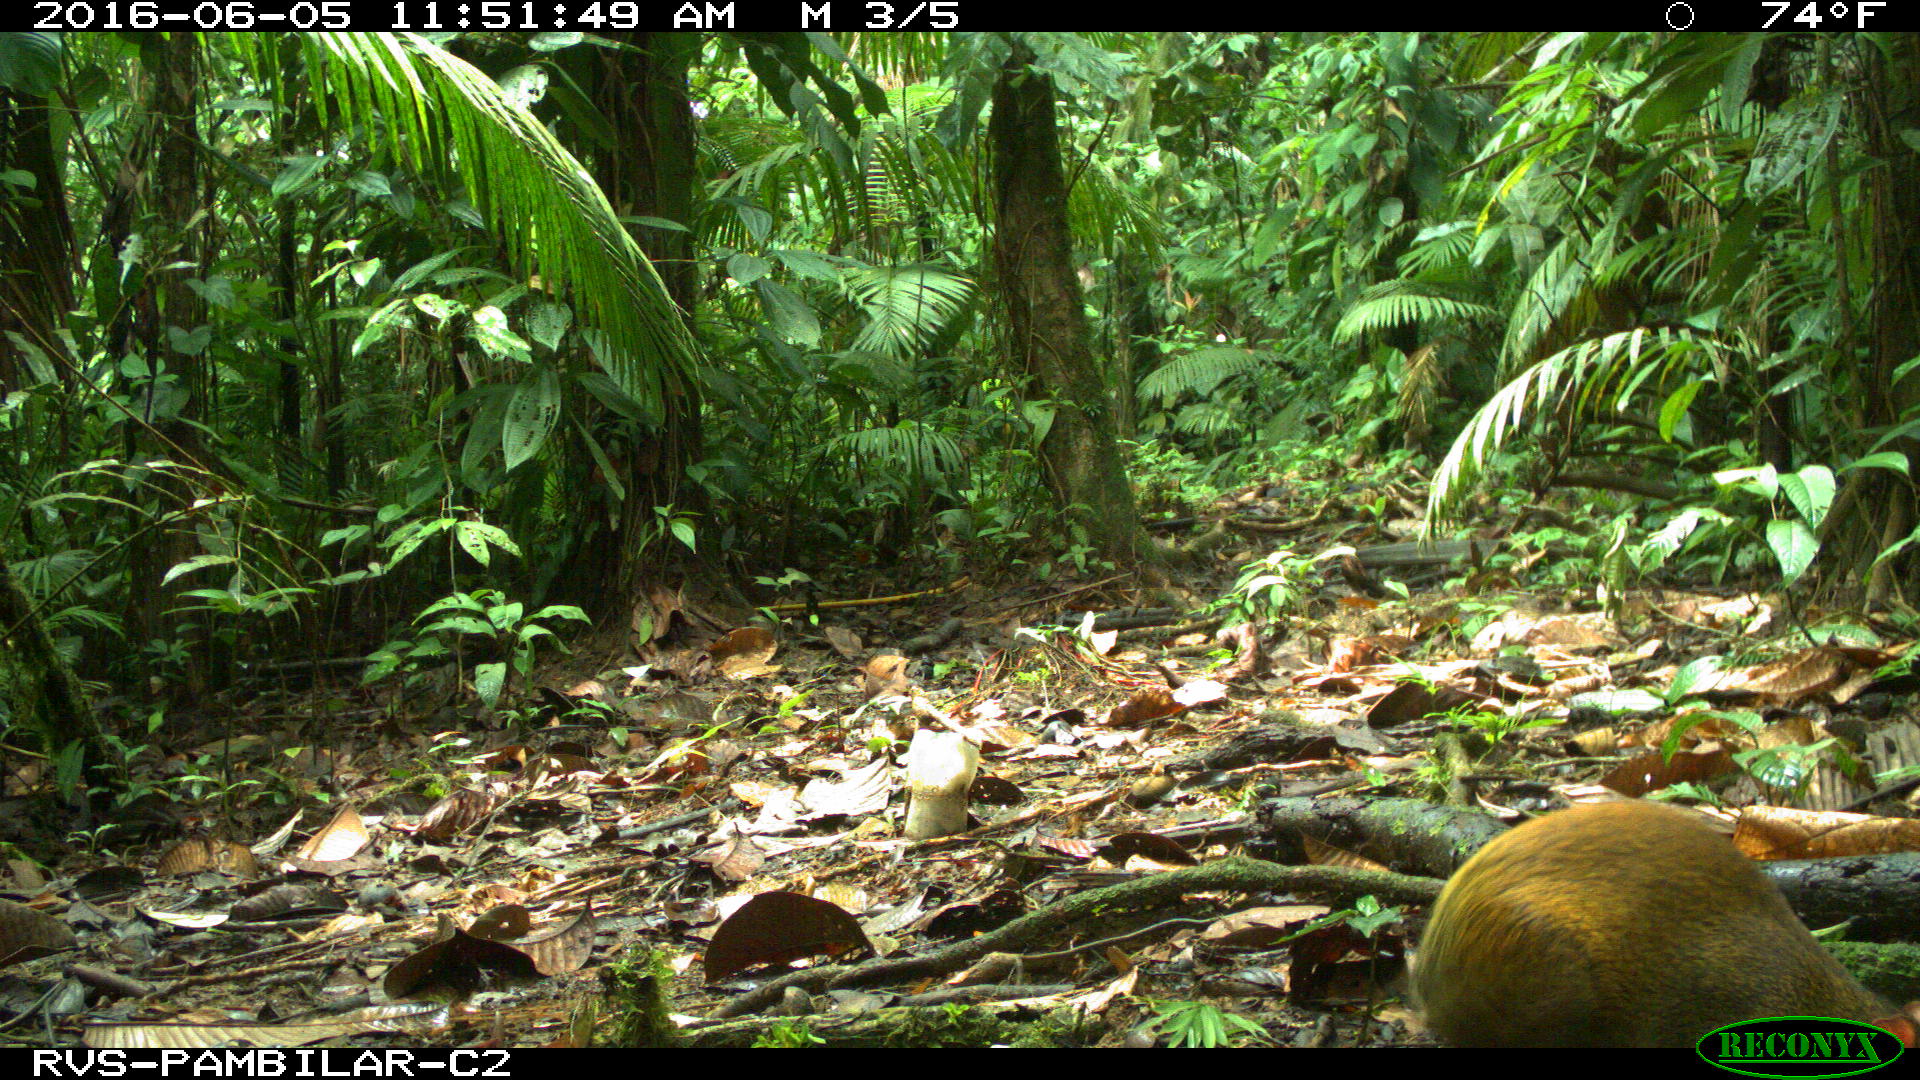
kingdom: Animalia
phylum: Chordata
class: Mammalia
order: Rodentia
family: Dasyproctidae
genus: Dasyprocta
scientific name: Dasyprocta punctata
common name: Central american agouti
